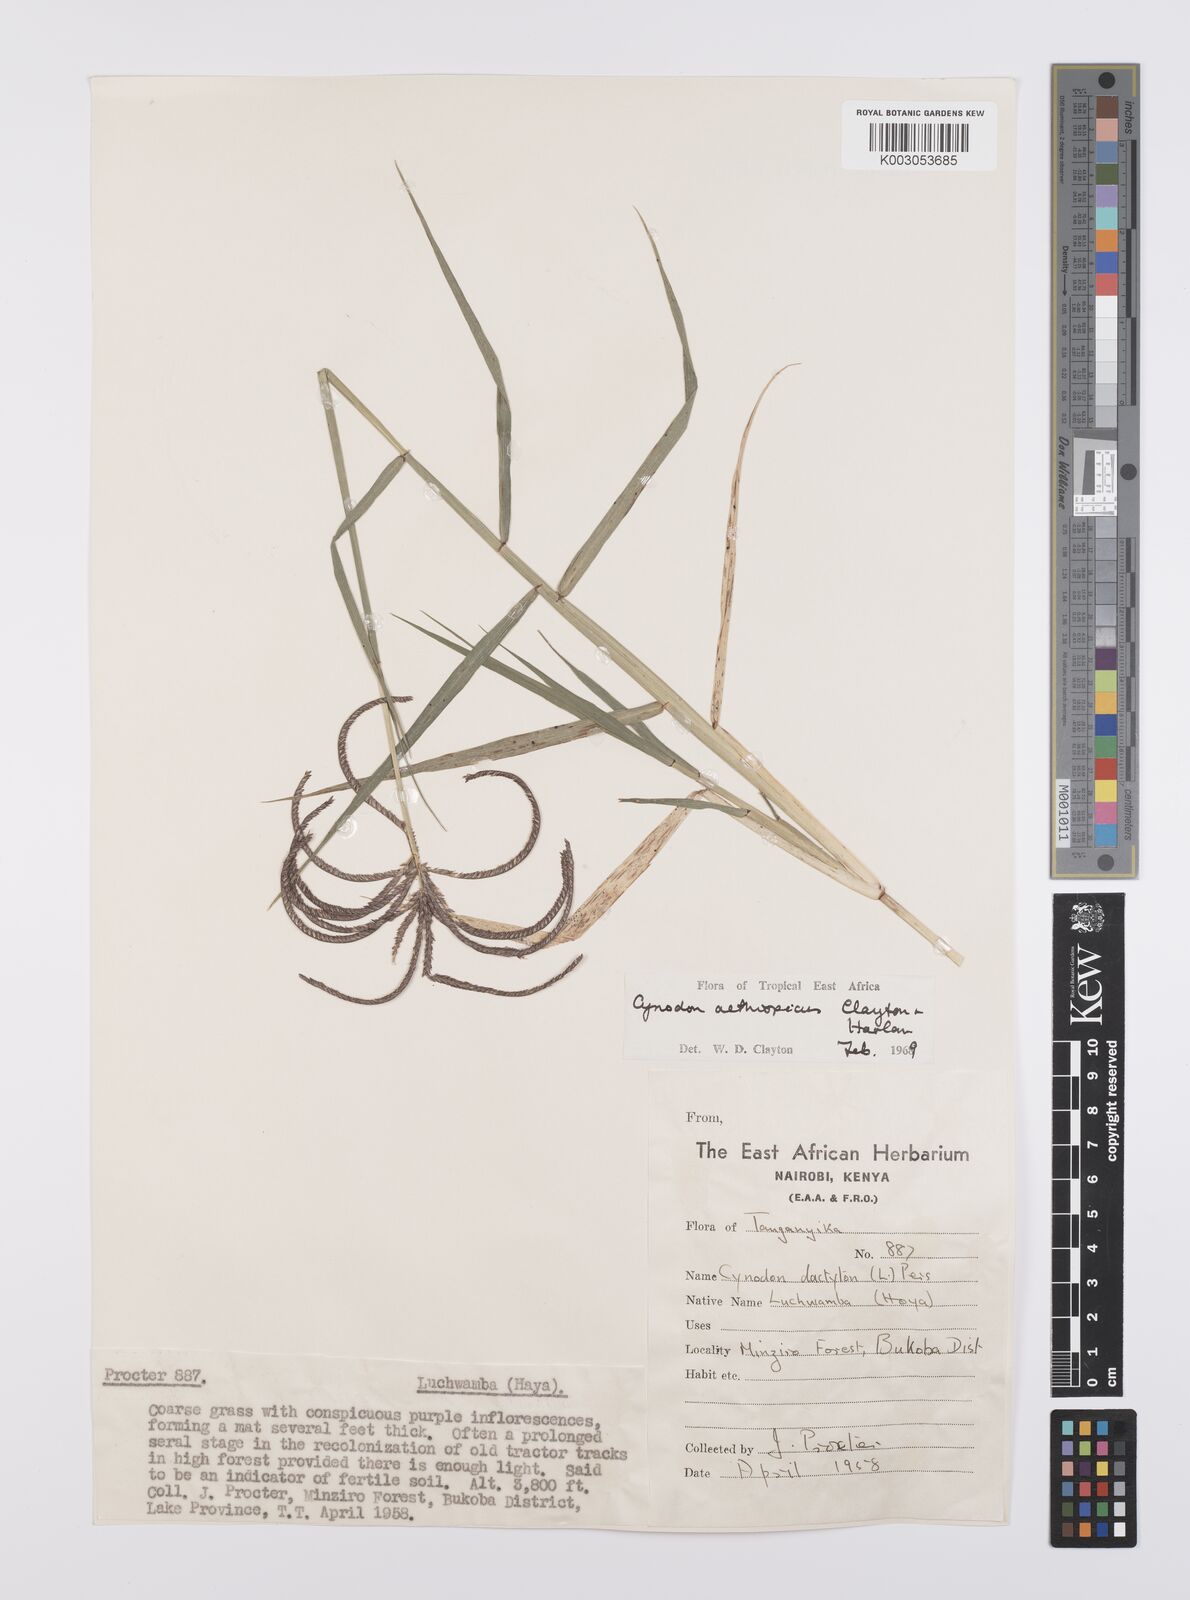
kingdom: Plantae
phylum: Tracheophyta
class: Liliopsida
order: Poales
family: Poaceae
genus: Cynodon
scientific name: Cynodon aethiopicus
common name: Ethiopian dogstooth grass
